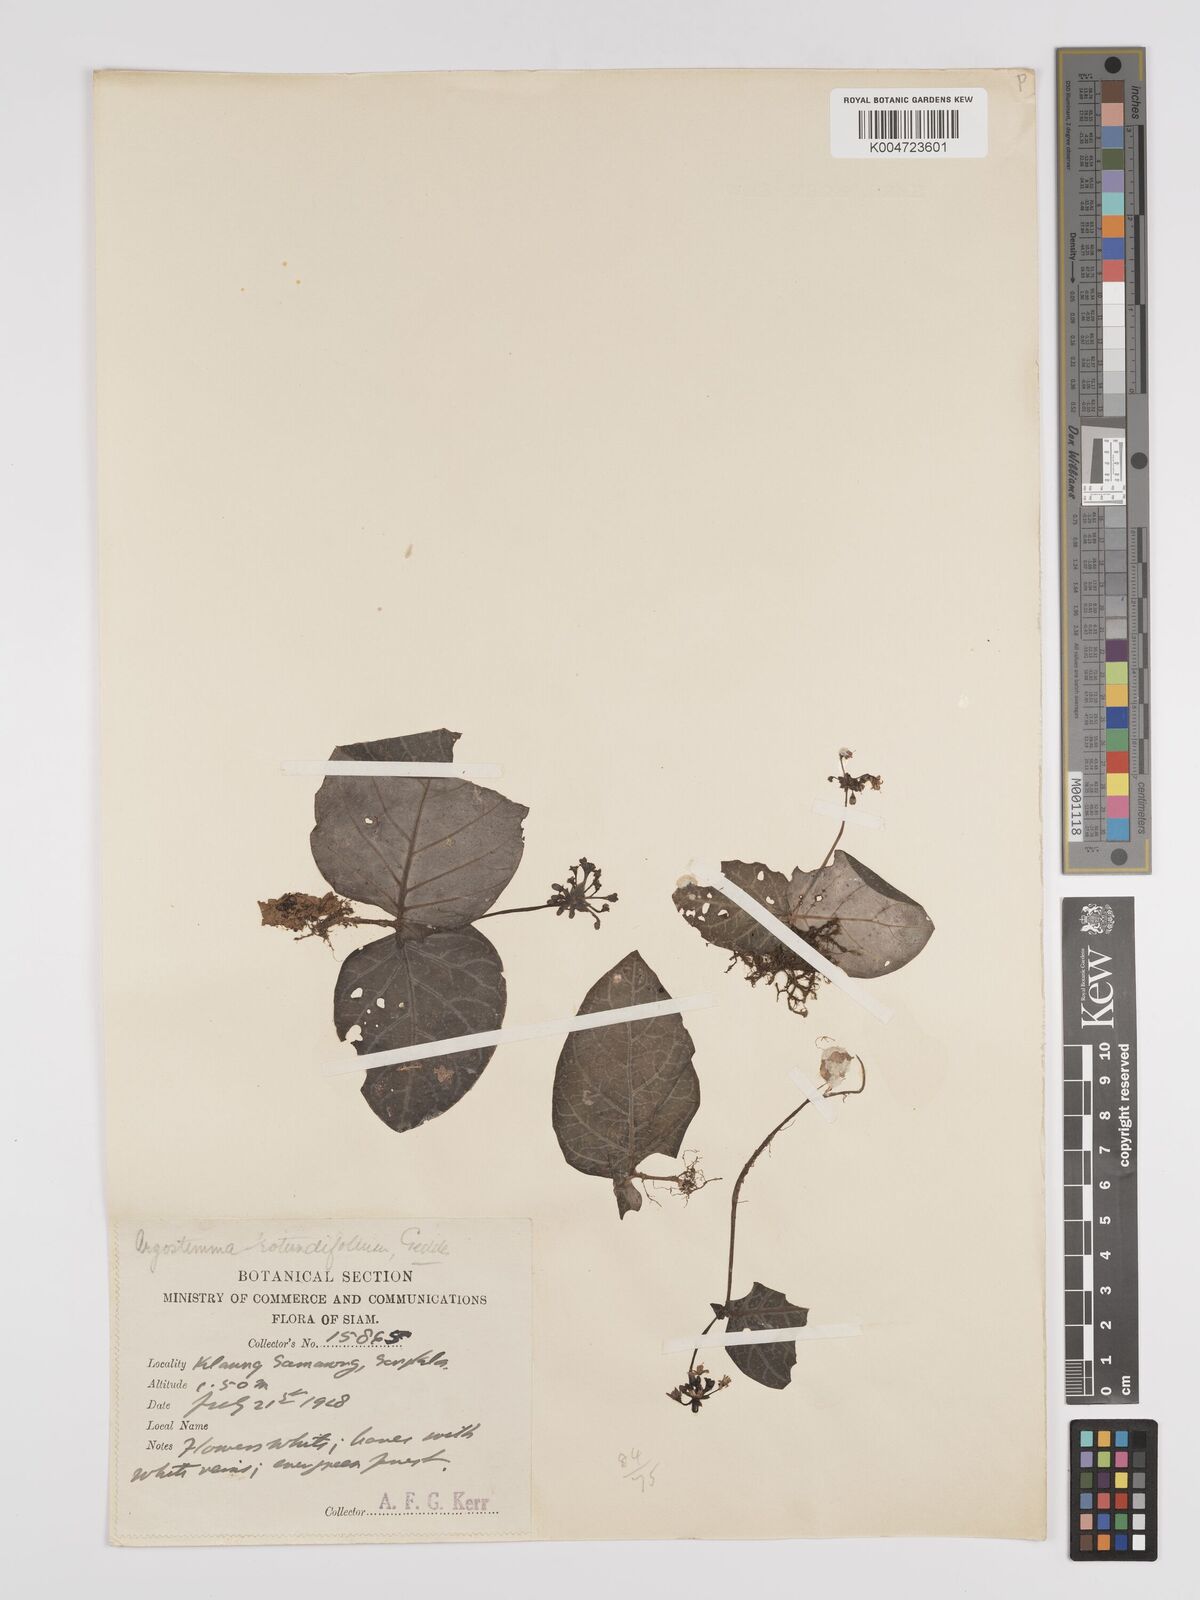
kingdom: Plantae
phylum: Tracheophyta
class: Magnoliopsida
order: Gentianales
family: Rubiaceae
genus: Argostemma
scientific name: Argostemma
